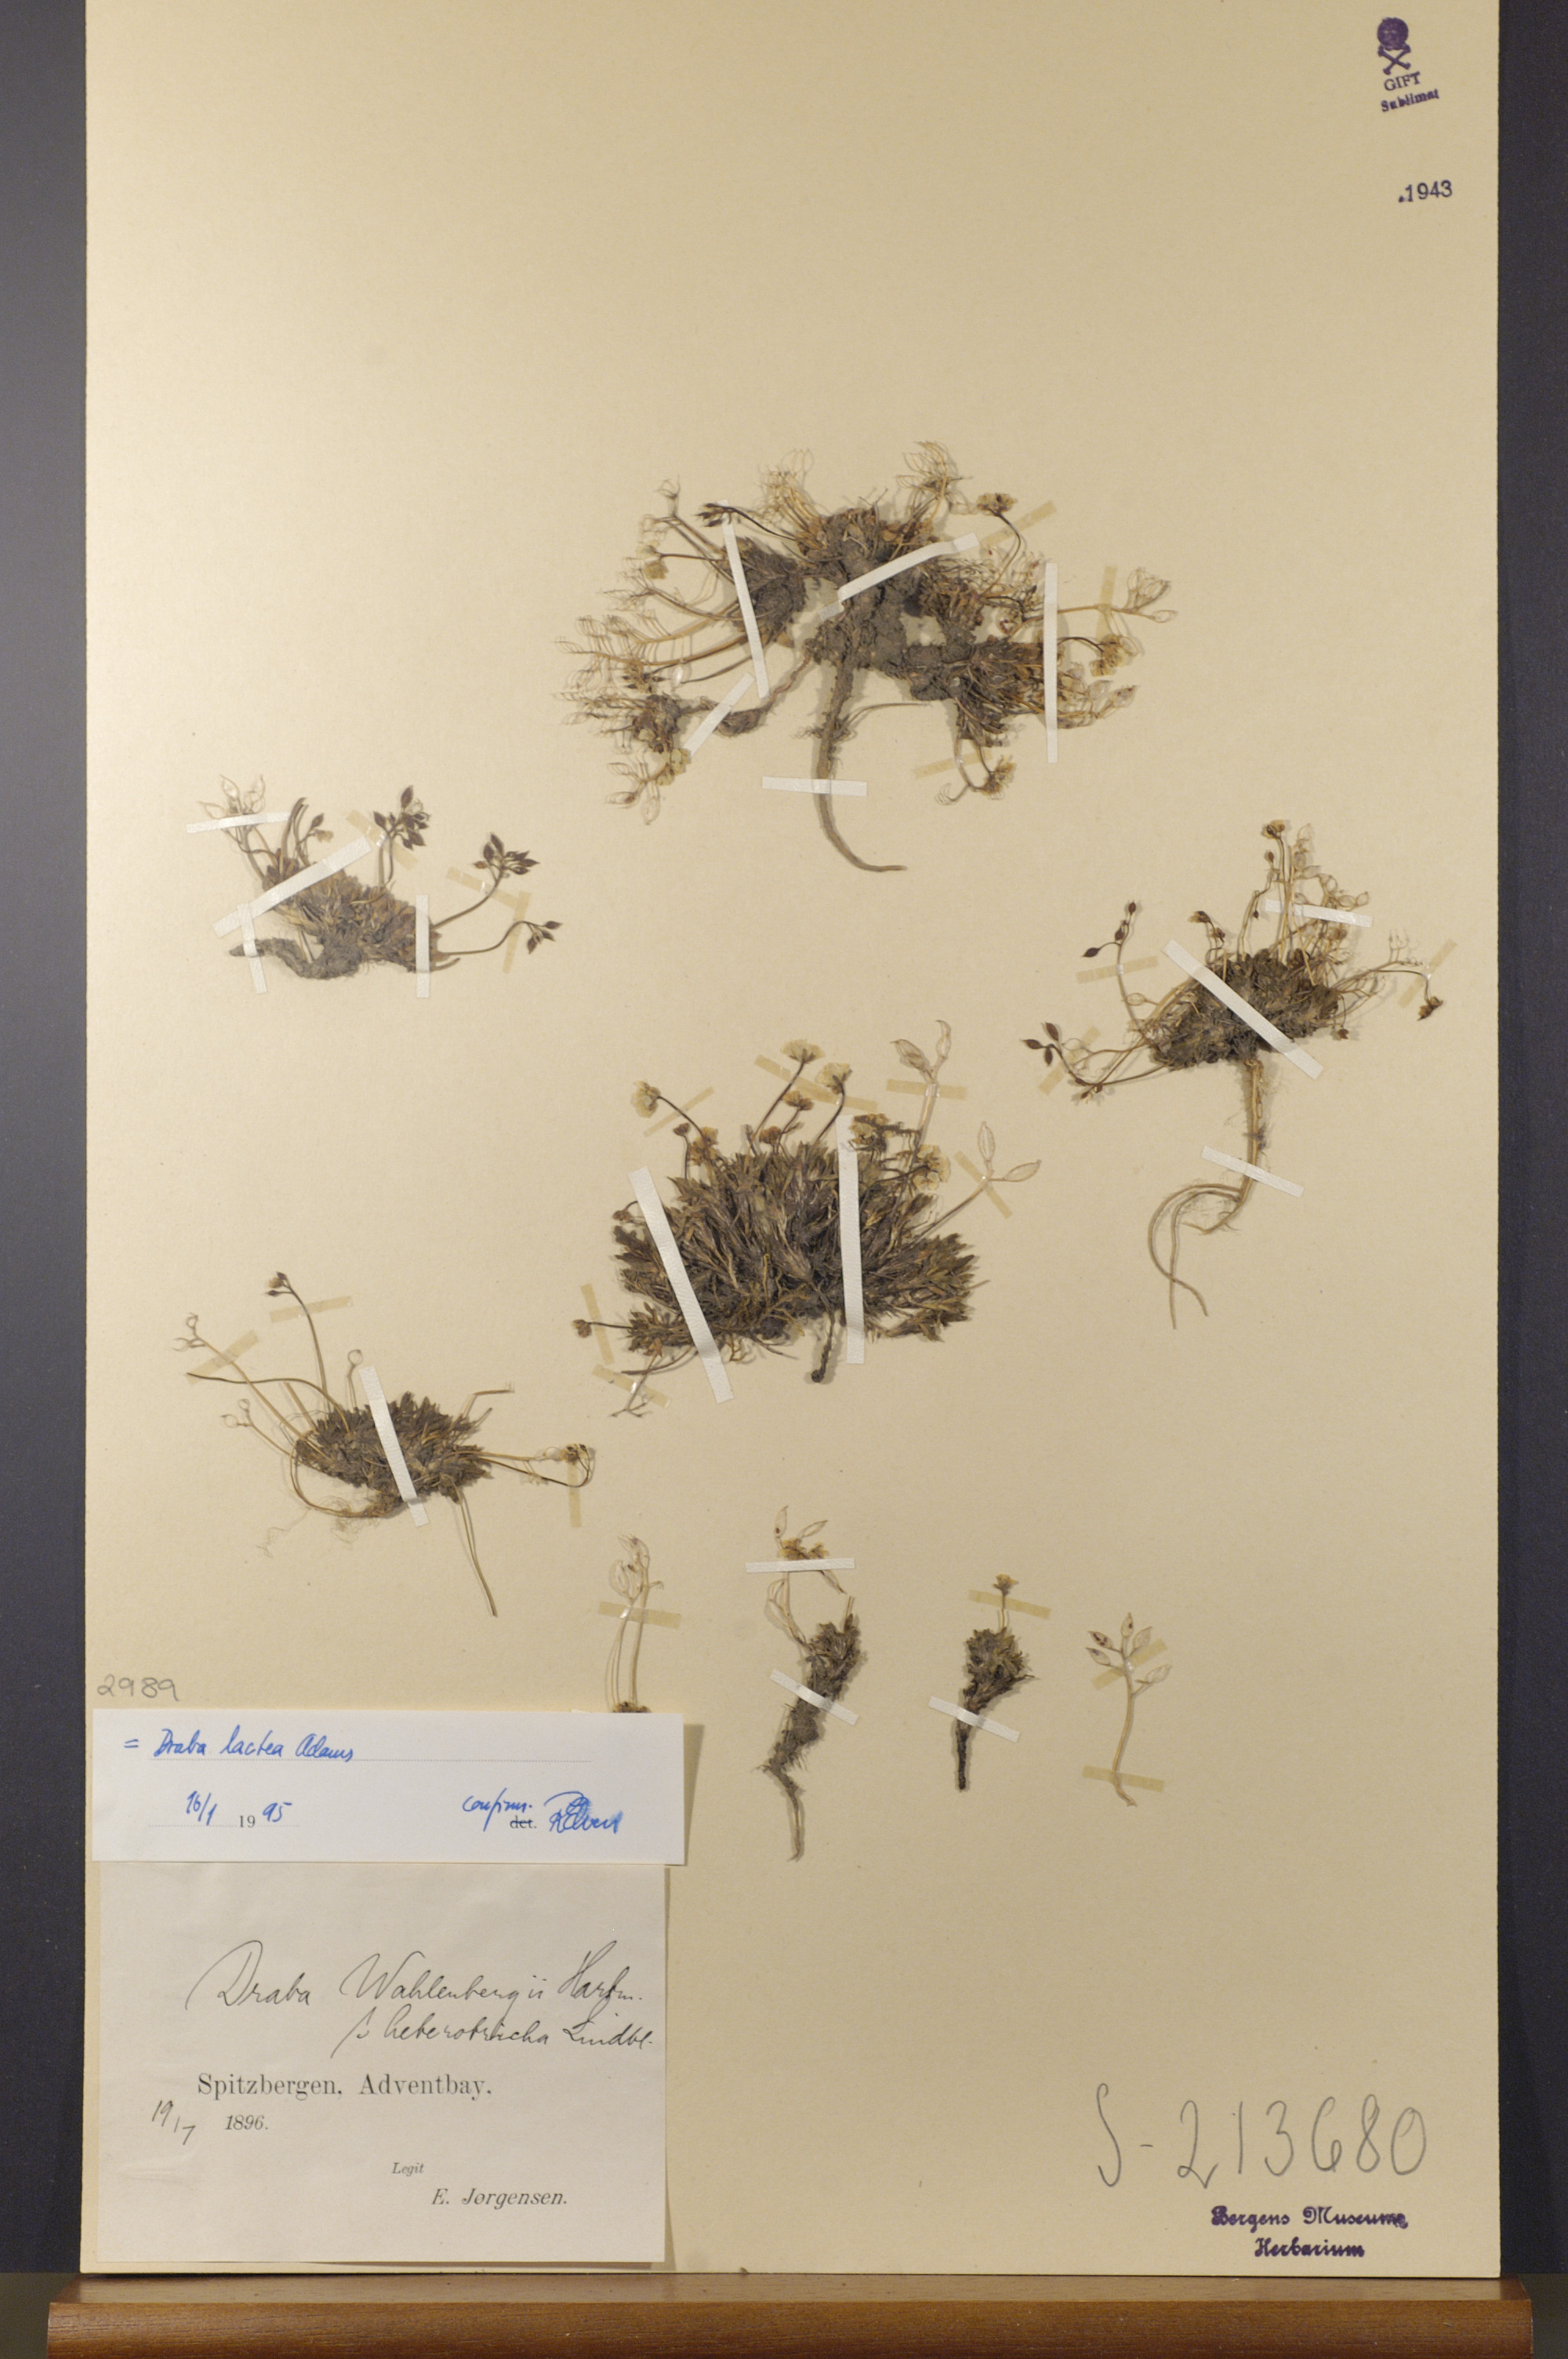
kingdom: Plantae
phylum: Tracheophyta
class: Magnoliopsida
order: Brassicales
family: Brassicaceae
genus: Draba
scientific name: Draba lactea
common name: Milky draba
